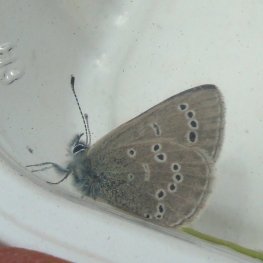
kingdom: Animalia
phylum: Arthropoda
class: Insecta
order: Lepidoptera
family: Lycaenidae
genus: Glaucopsyche
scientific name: Glaucopsyche lygdamus
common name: Silvery Blue
